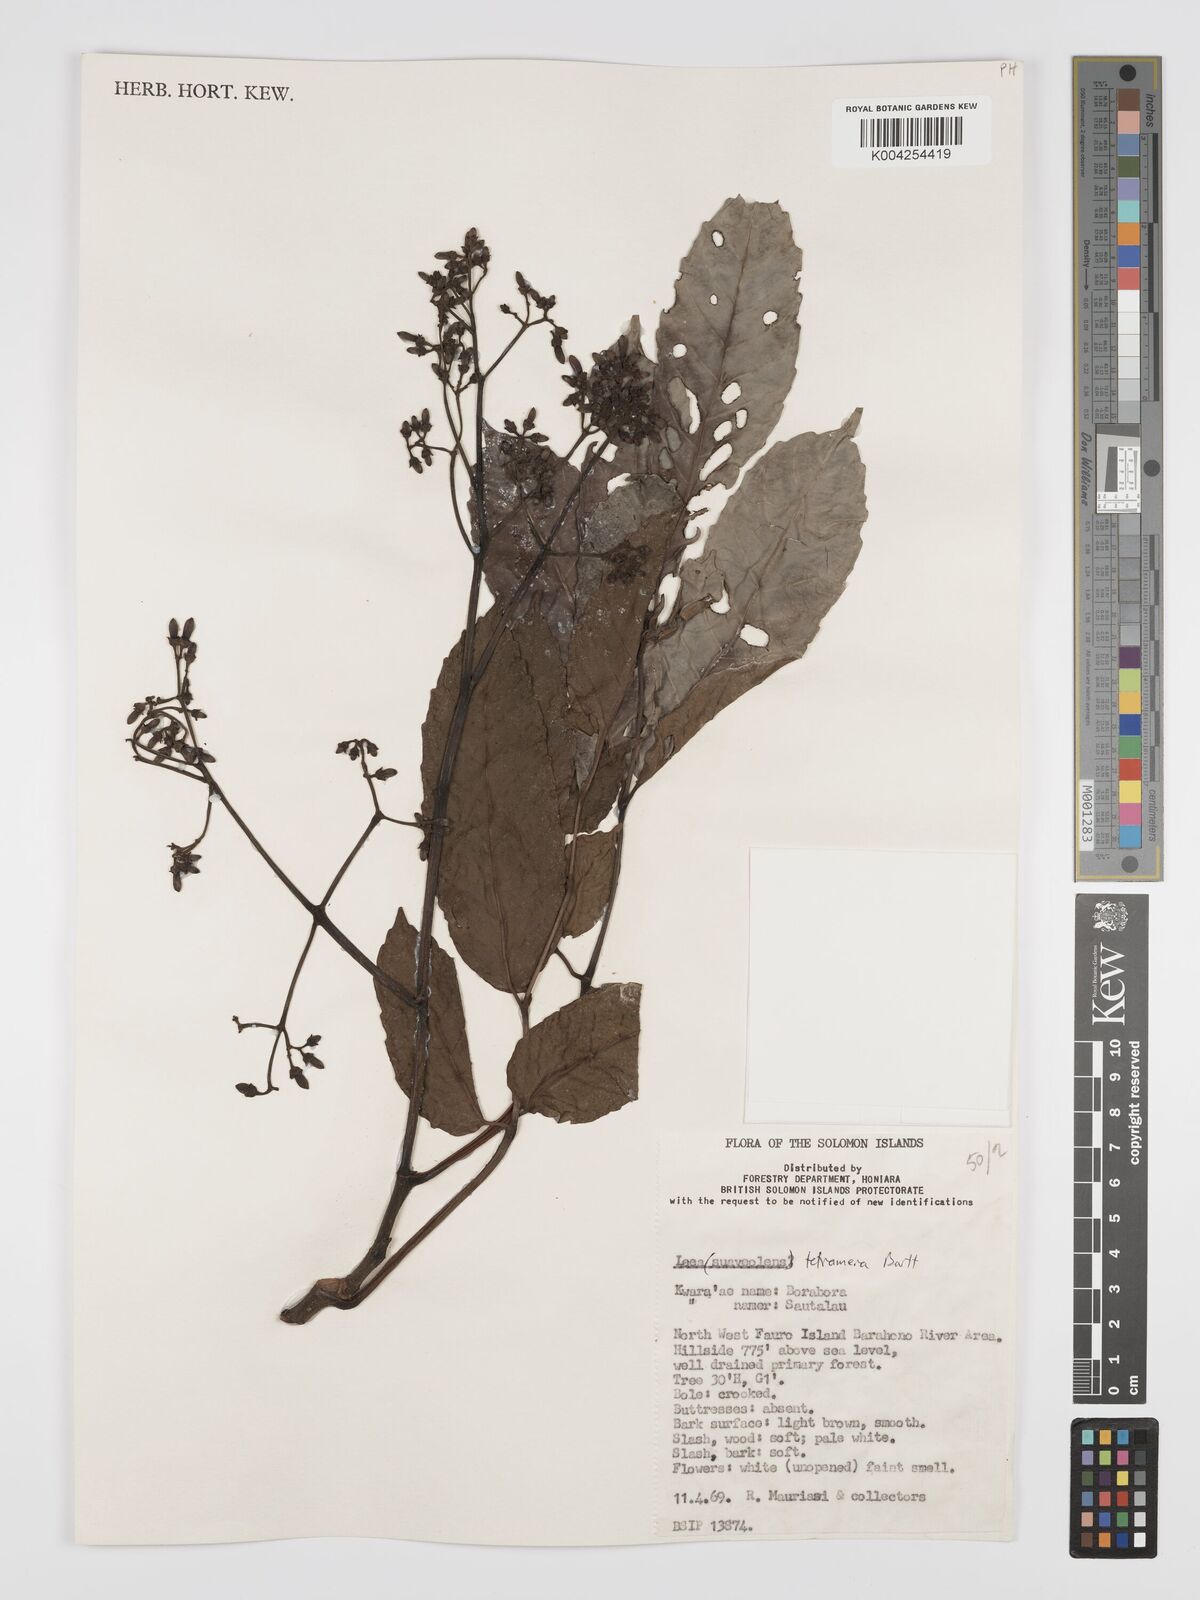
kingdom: Plantae
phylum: Tracheophyta
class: Magnoliopsida
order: Vitales
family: Vitaceae
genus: Leea
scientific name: Leea tetramera
